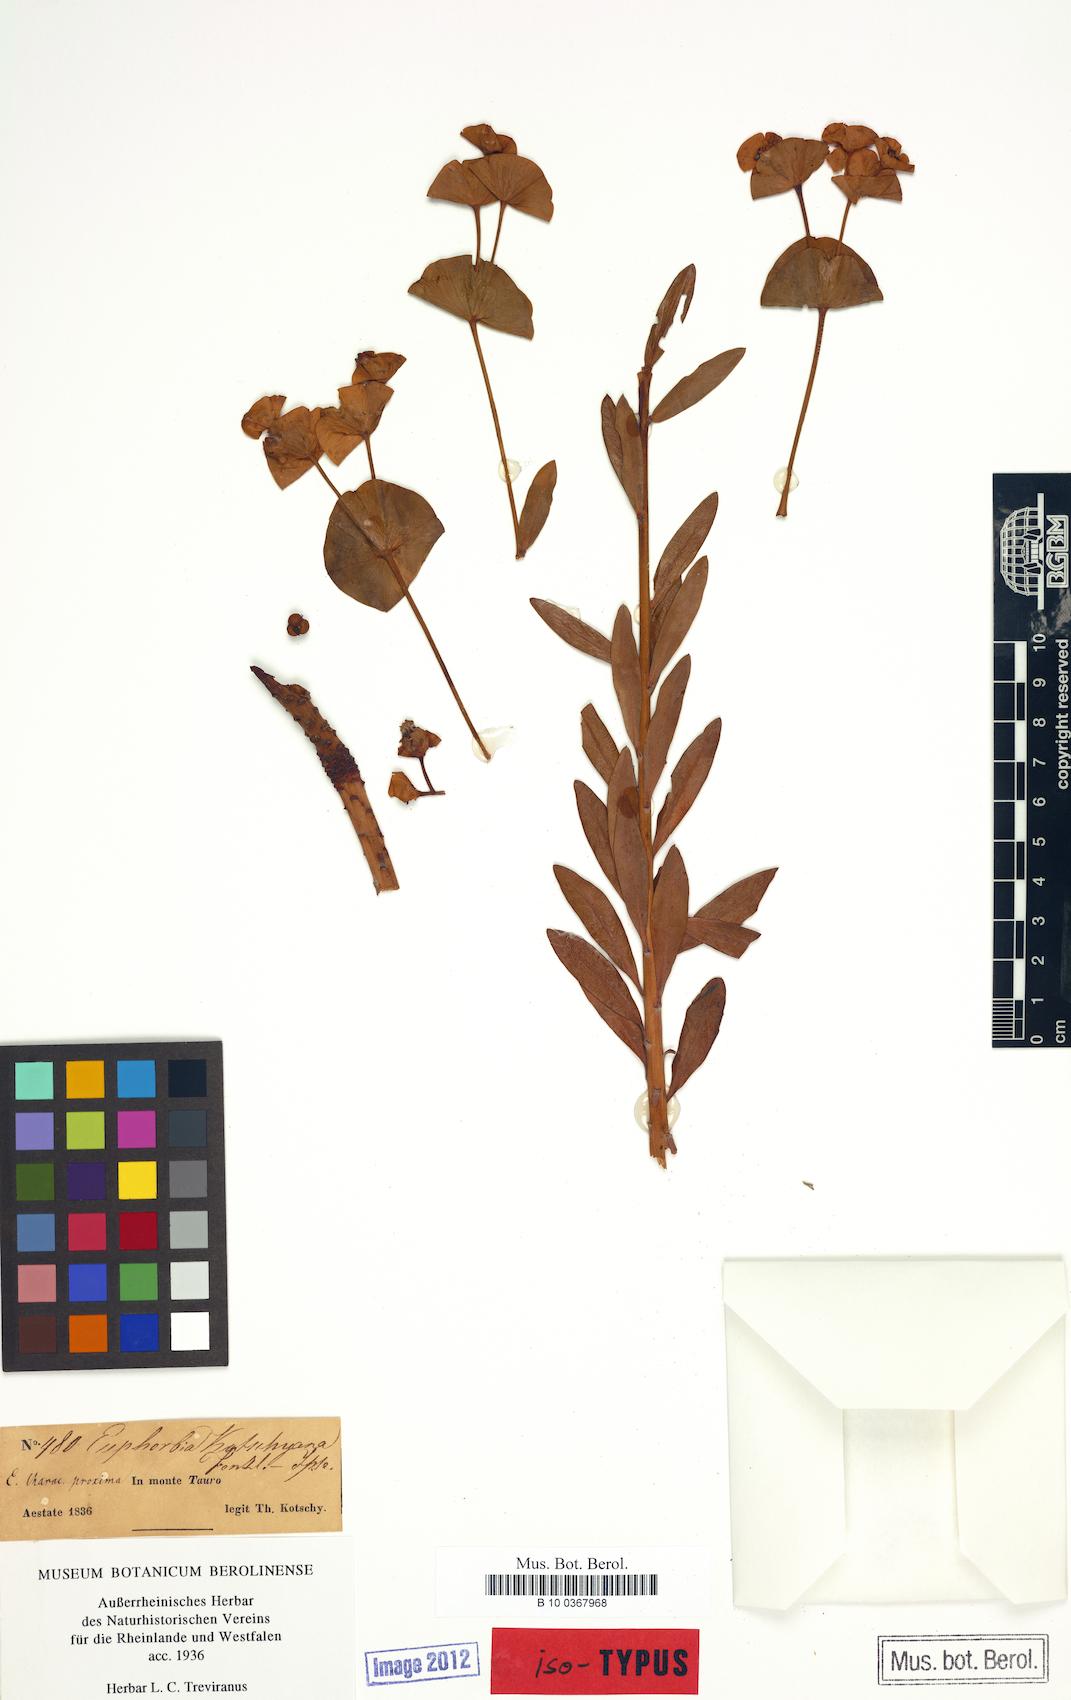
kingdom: Plantae
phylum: Tracheophyta
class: Magnoliopsida
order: Malpighiales
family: Euphorbiaceae
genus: Euphorbia
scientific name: Euphorbia kotschyana
